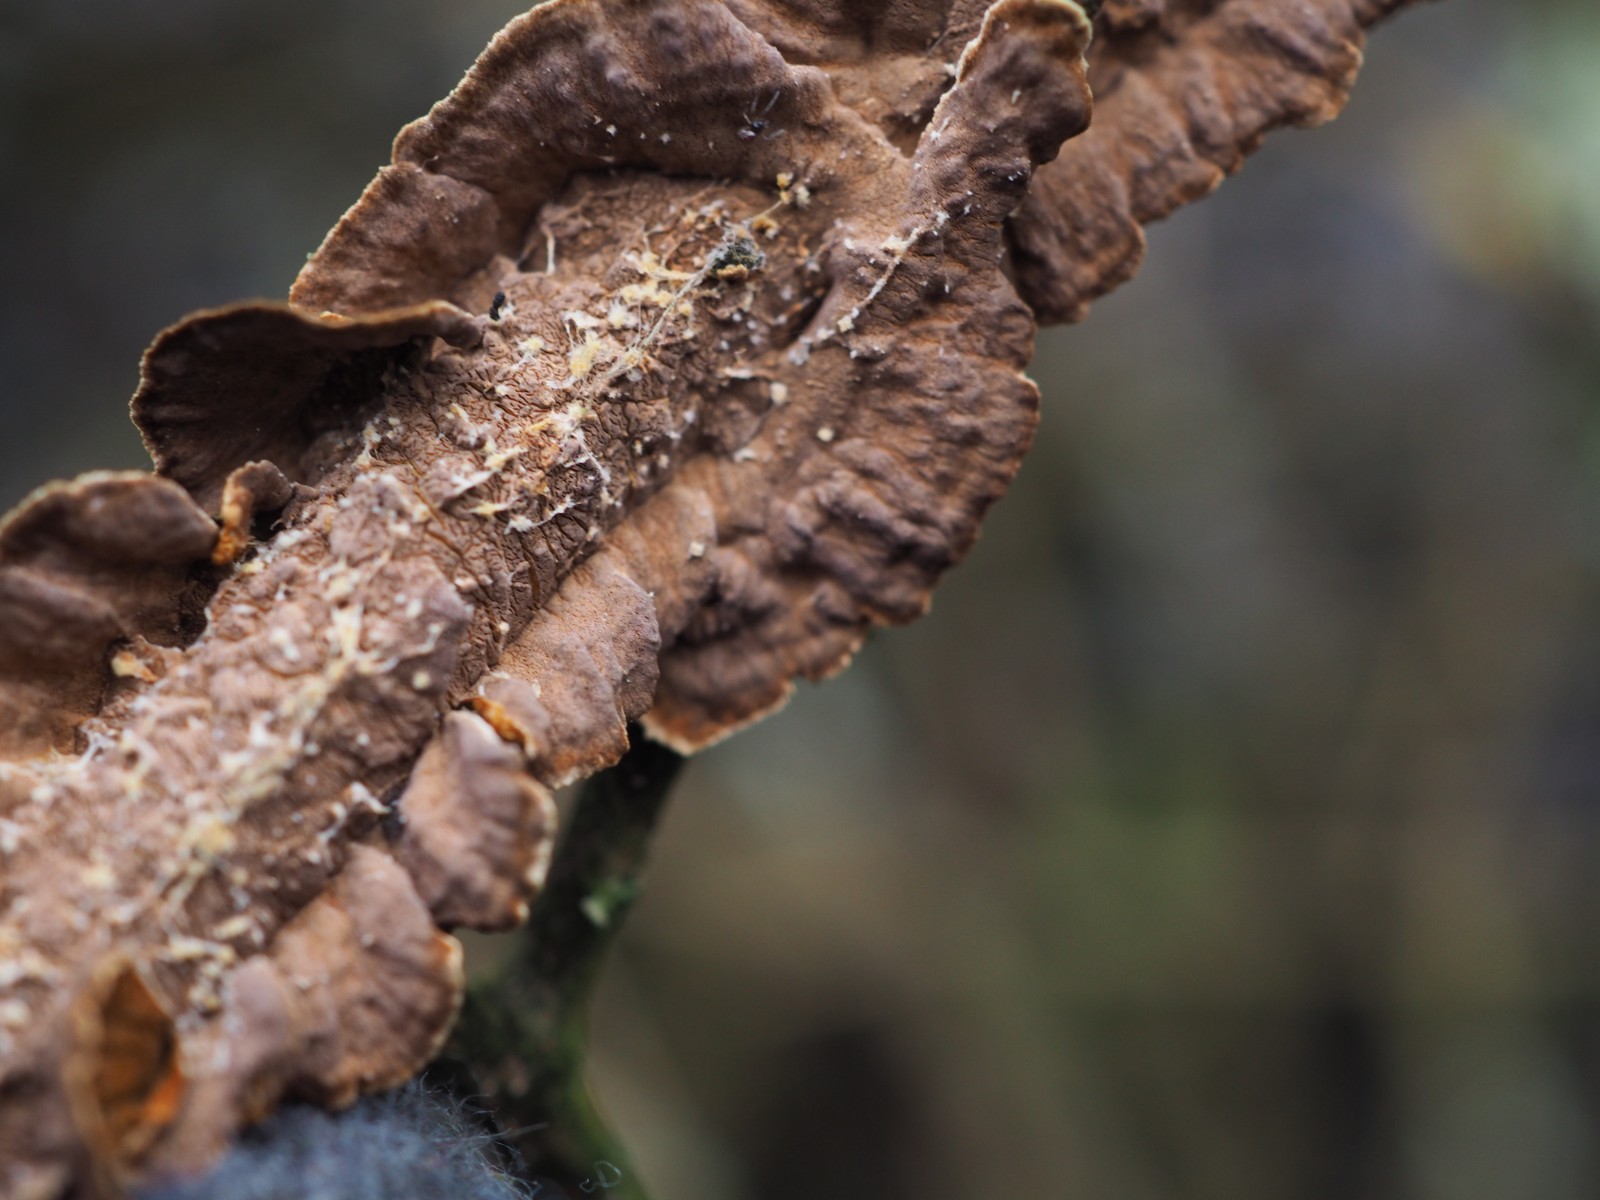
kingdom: Fungi
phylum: Basidiomycota
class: Agaricomycetes
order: Hymenochaetales
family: Hymenochaetaceae
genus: Hydnoporia
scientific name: Hydnoporia tabacina
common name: tobaksbrun ruslædersvamp
